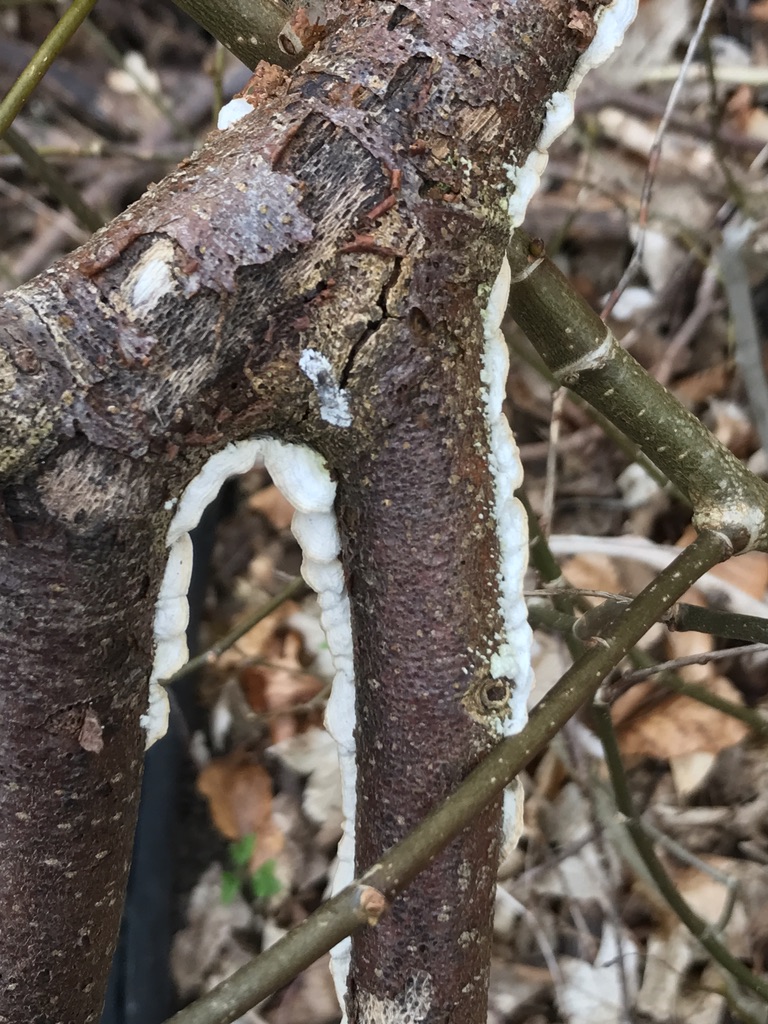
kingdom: Fungi
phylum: Basidiomycota
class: Agaricomycetes
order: Polyporales
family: Irpicaceae
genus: Byssomerulius
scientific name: Byssomerulius corium
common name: læder-åresvamp
